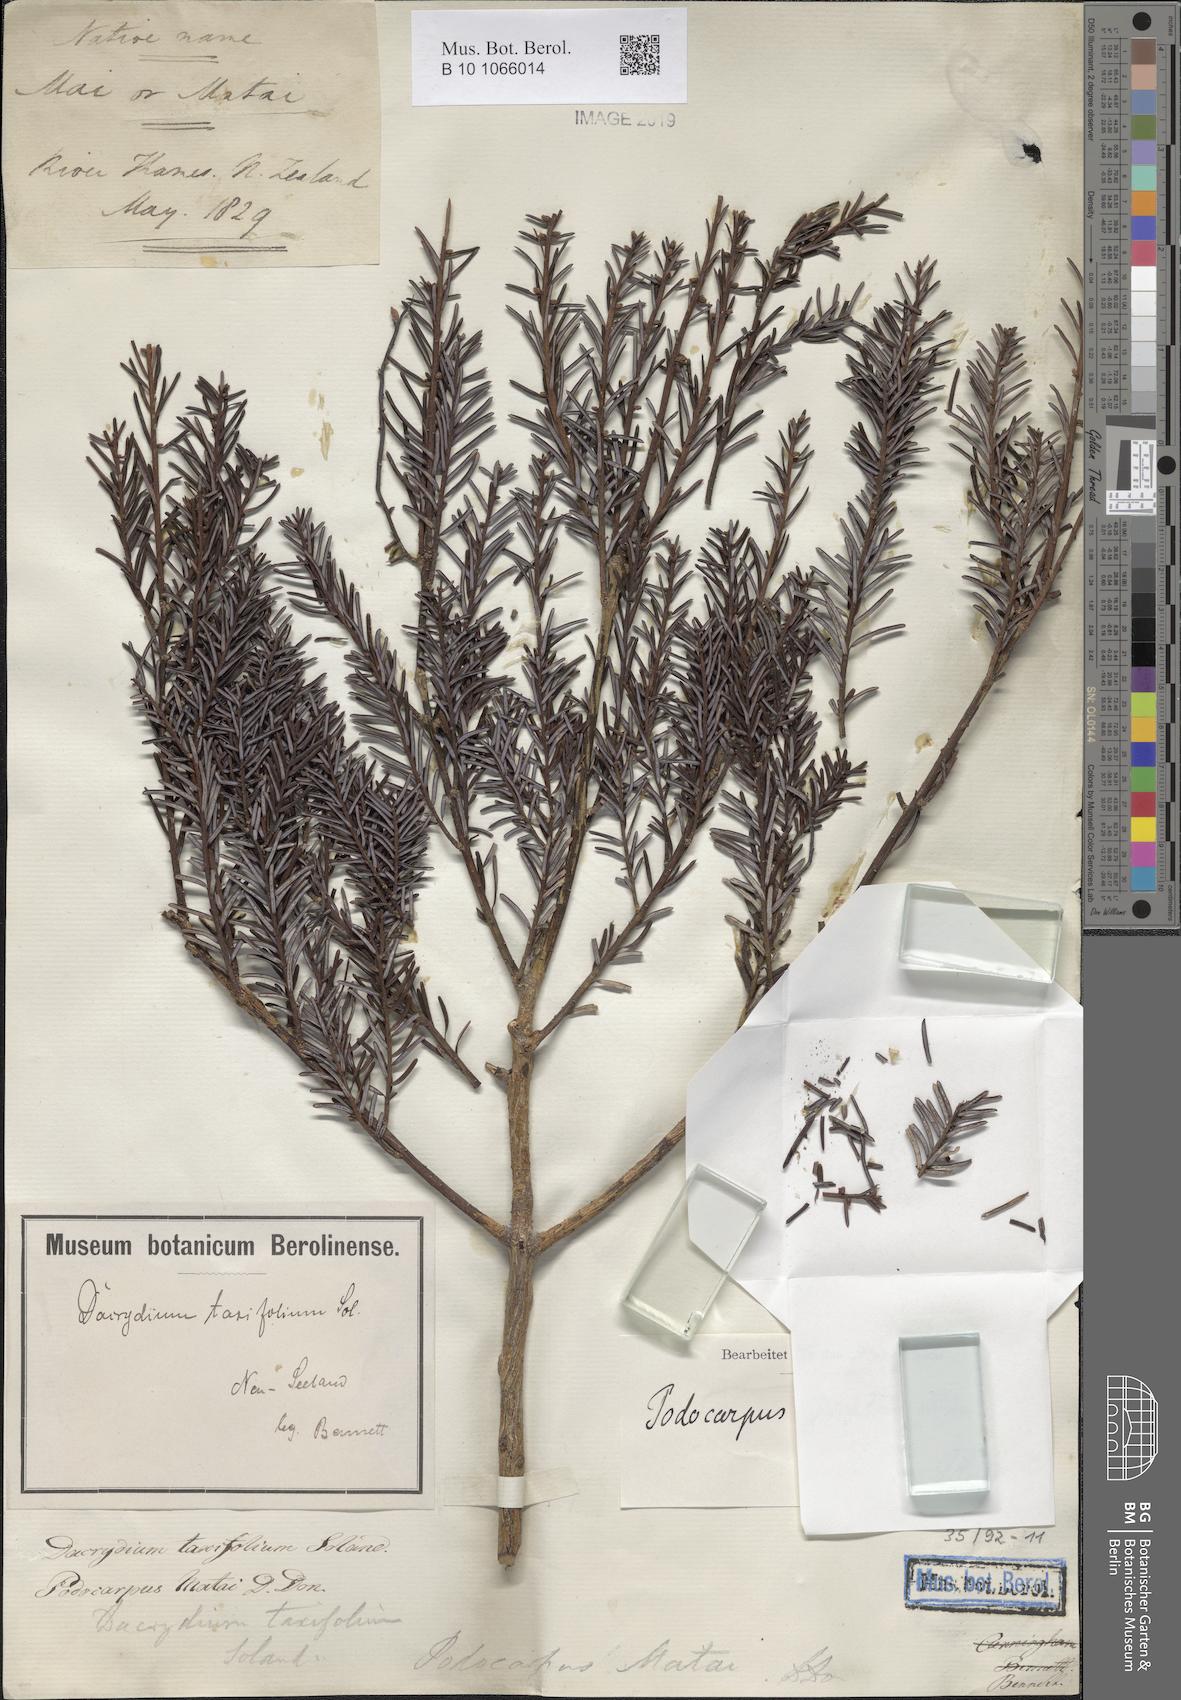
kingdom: Plantae
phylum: Tracheophyta
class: Pinopsida
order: Pinales
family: Podocarpaceae
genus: Prumnopitys
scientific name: Prumnopitys taxifolia
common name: Matai
